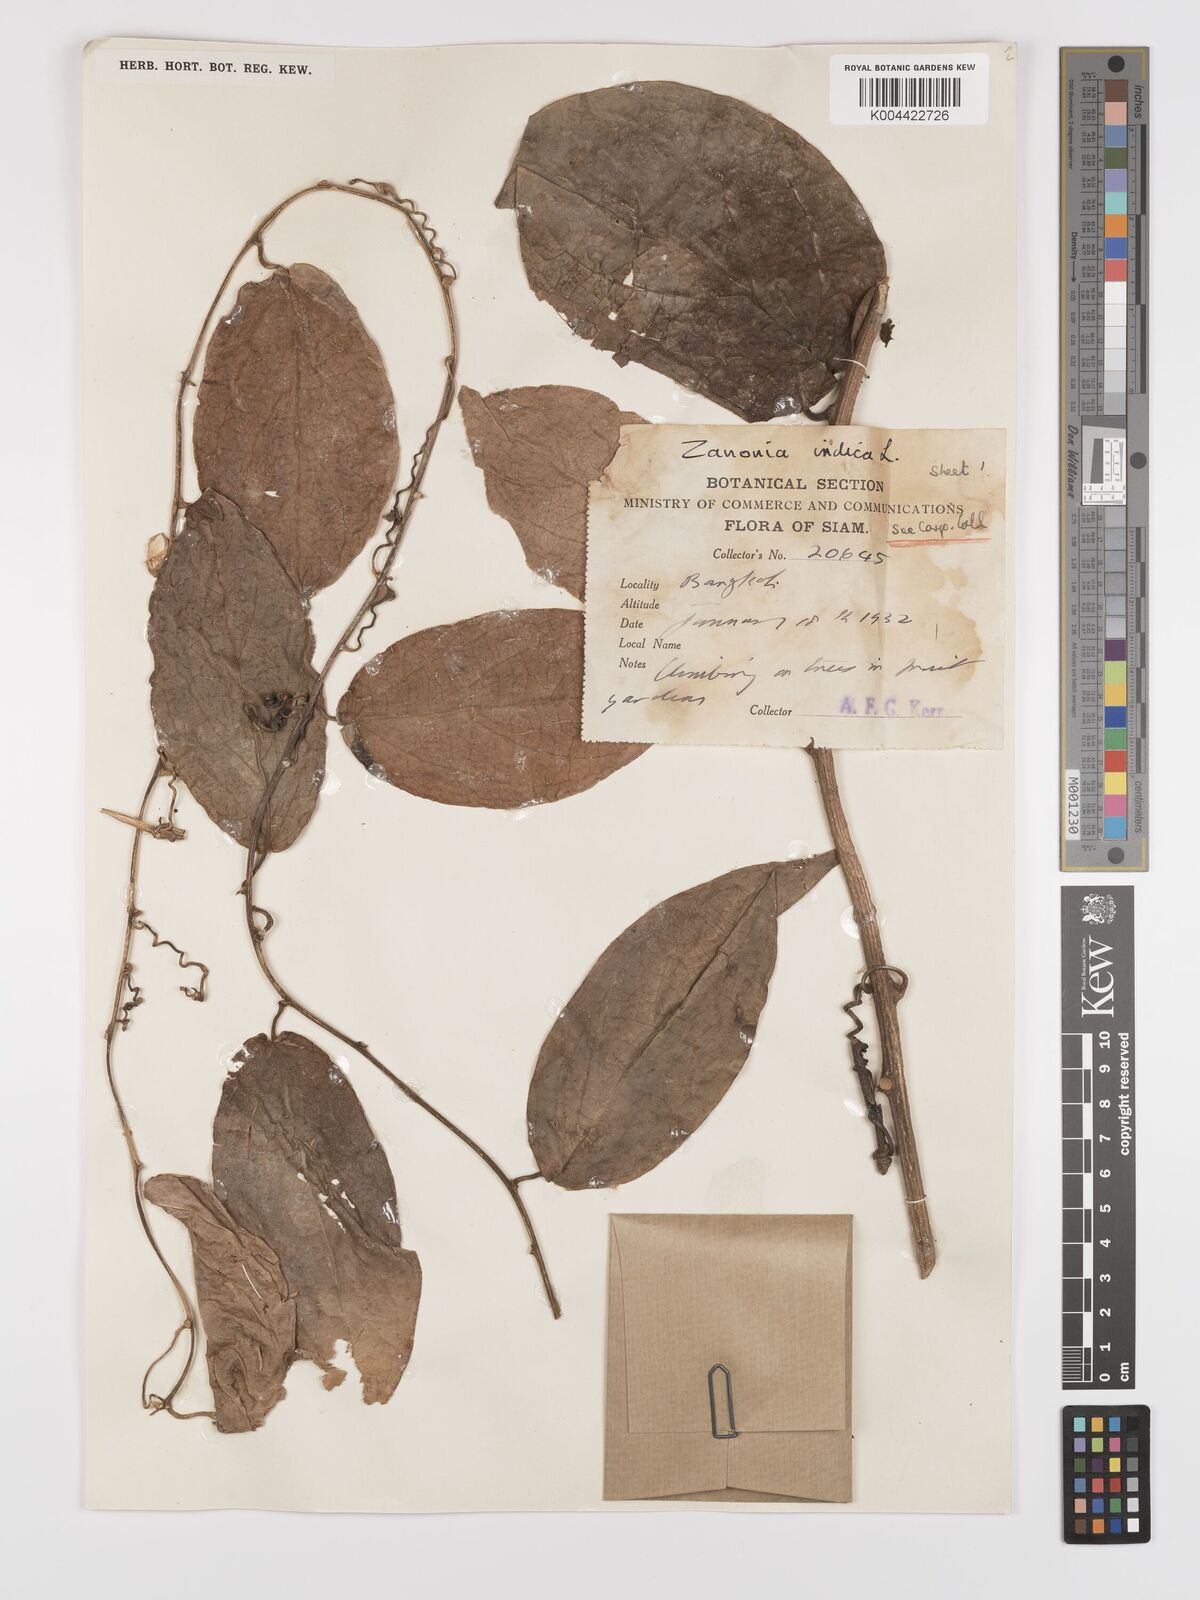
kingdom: Plantae
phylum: Tracheophyta
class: Magnoliopsida
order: Cucurbitales
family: Cucurbitaceae
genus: Zanonia
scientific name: Zanonia indica
